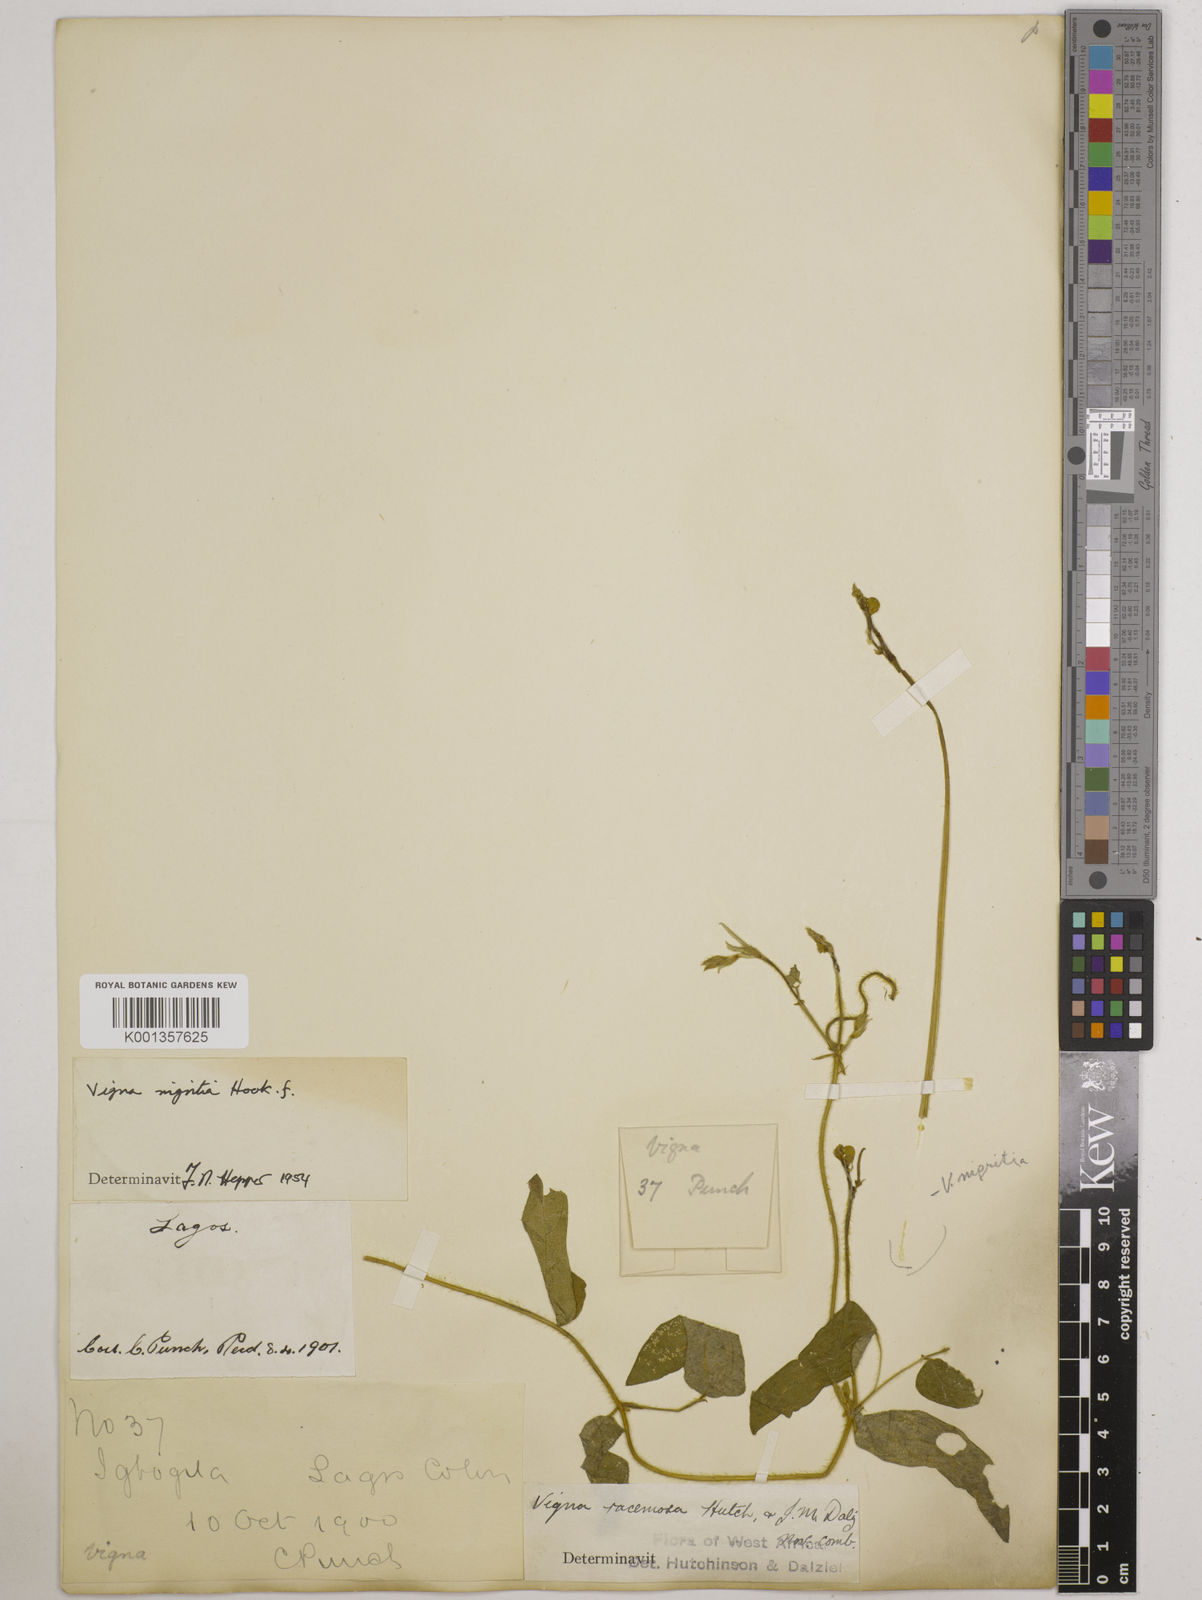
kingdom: Plantae
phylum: Tracheophyta
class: Magnoliopsida
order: Fabales
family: Fabaceae
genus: Vigna
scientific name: Vigna nigritia
